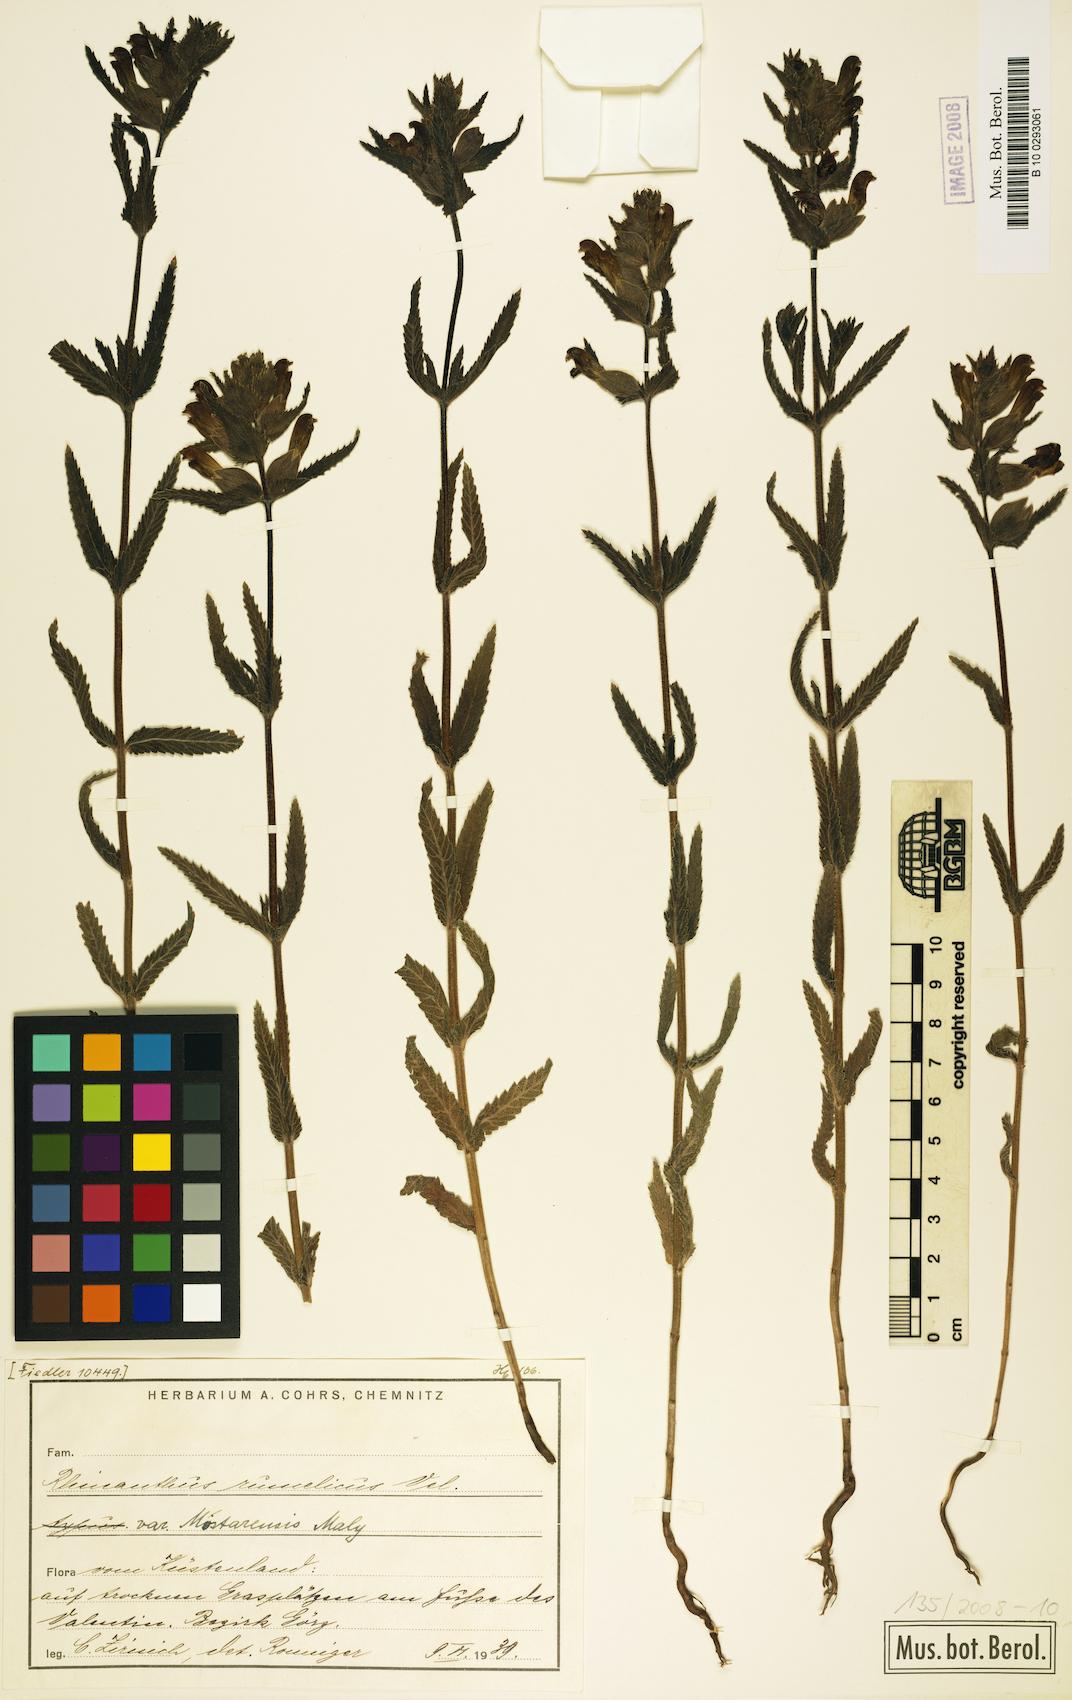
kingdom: Plantae
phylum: Tracheophyta
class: Magnoliopsida
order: Lamiales
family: Orobanchaceae
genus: Rhinanthus
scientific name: Rhinanthus rumelicus
